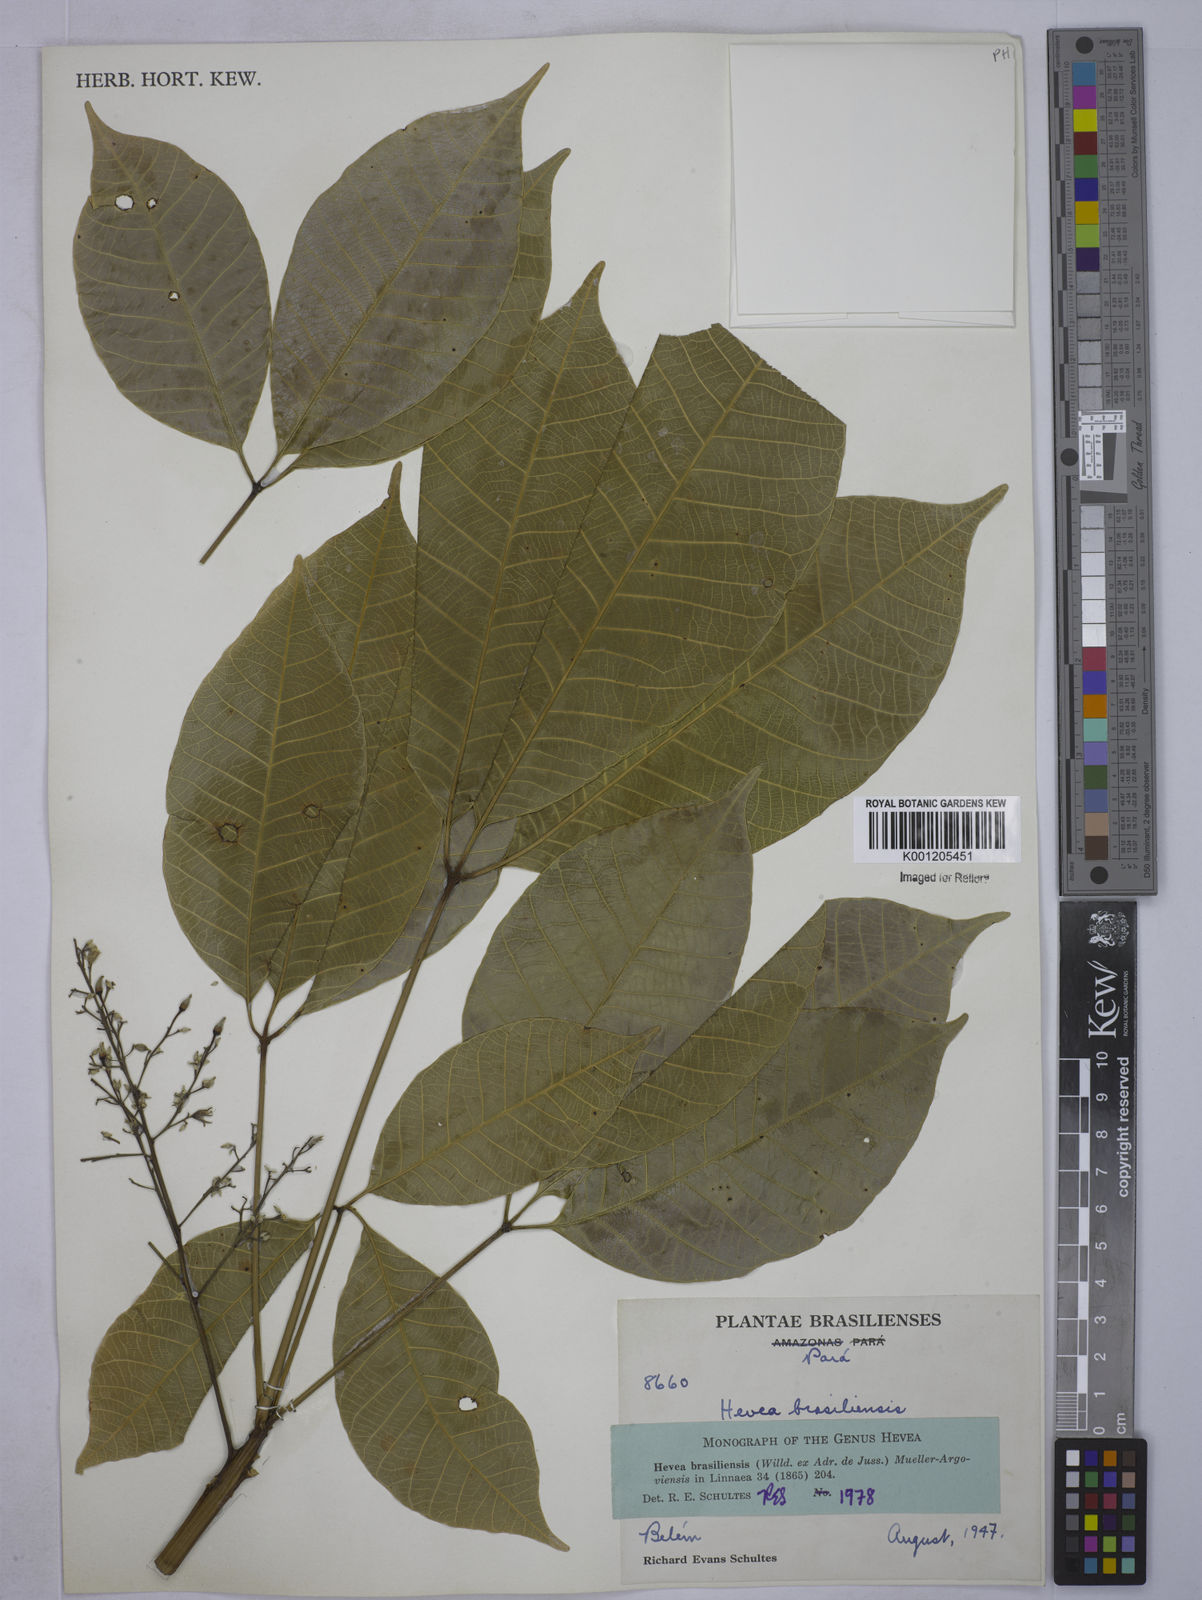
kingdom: Plantae
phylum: Tracheophyta
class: Magnoliopsida
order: Malpighiales
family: Euphorbiaceae
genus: Hevea
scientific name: Hevea
